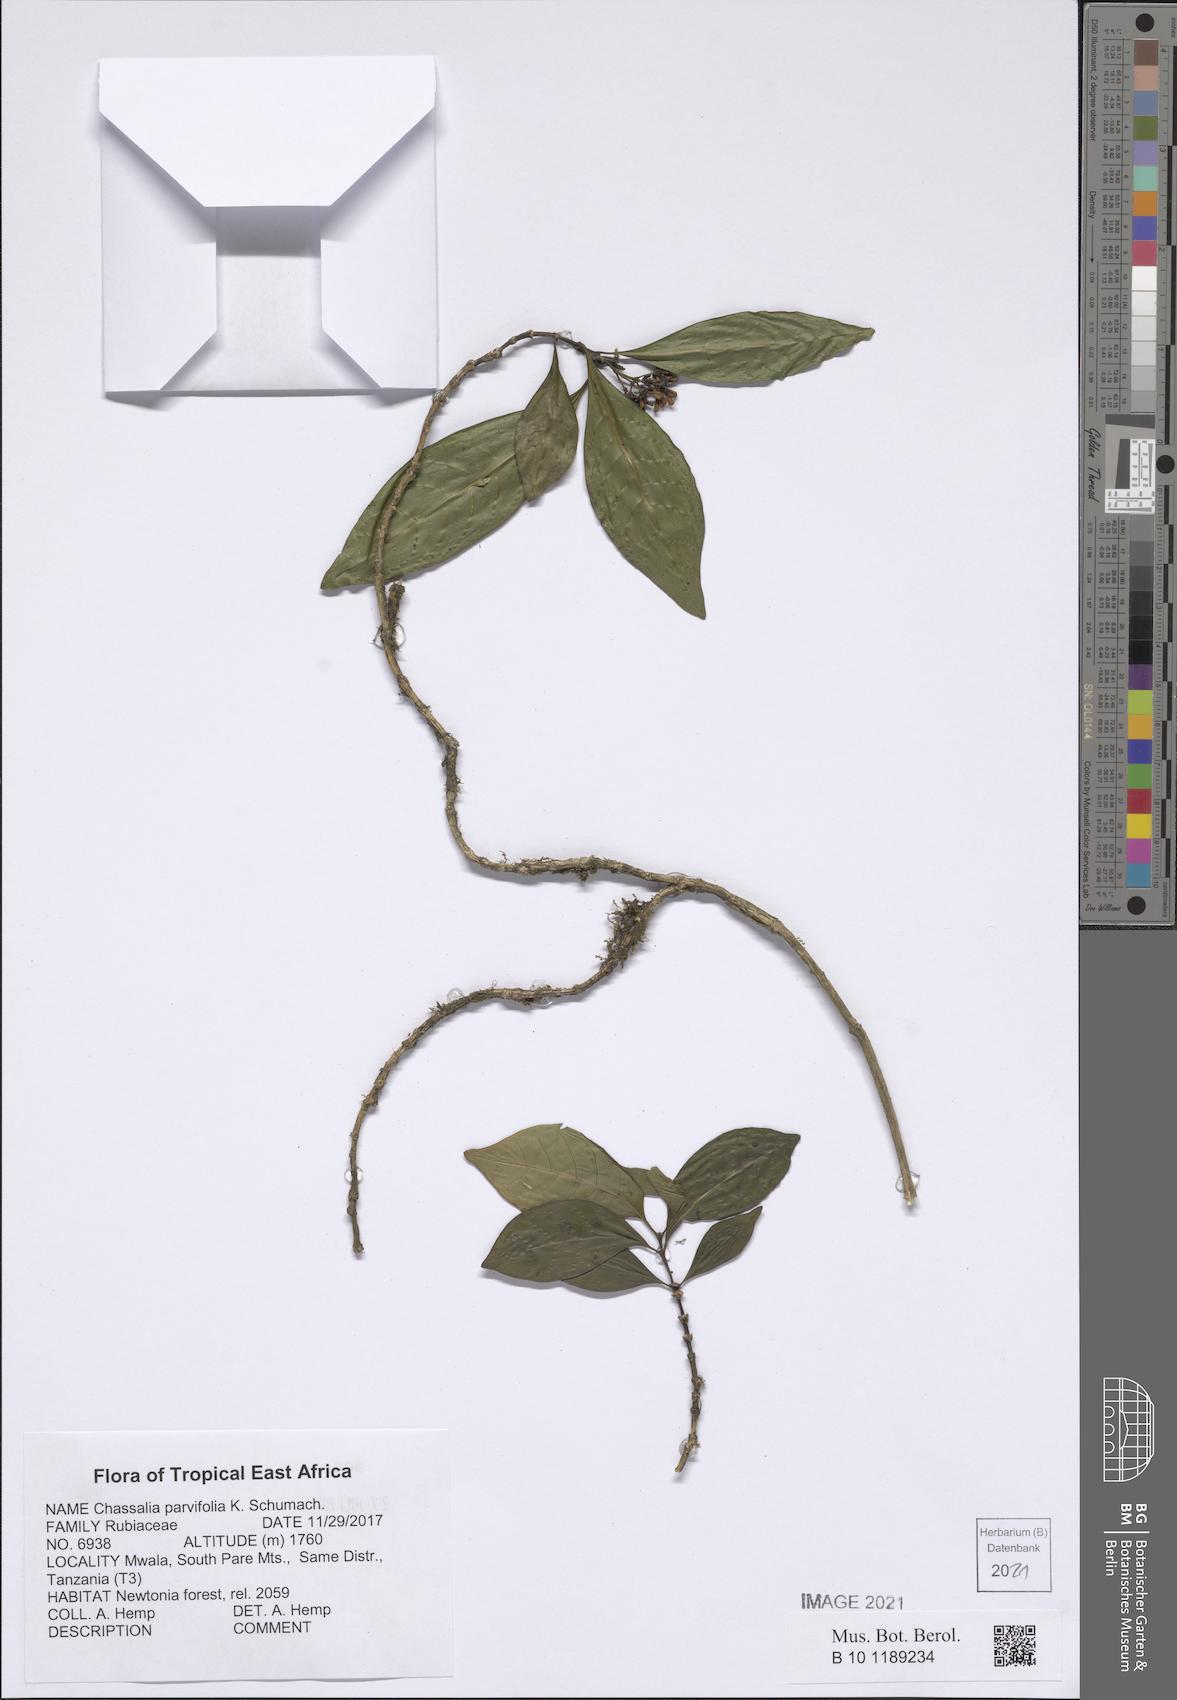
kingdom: Plantae
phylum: Tracheophyta
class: Magnoliopsida
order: Gentianales
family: Rubiaceae
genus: Chassalia
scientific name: Chassalia parvifolia
